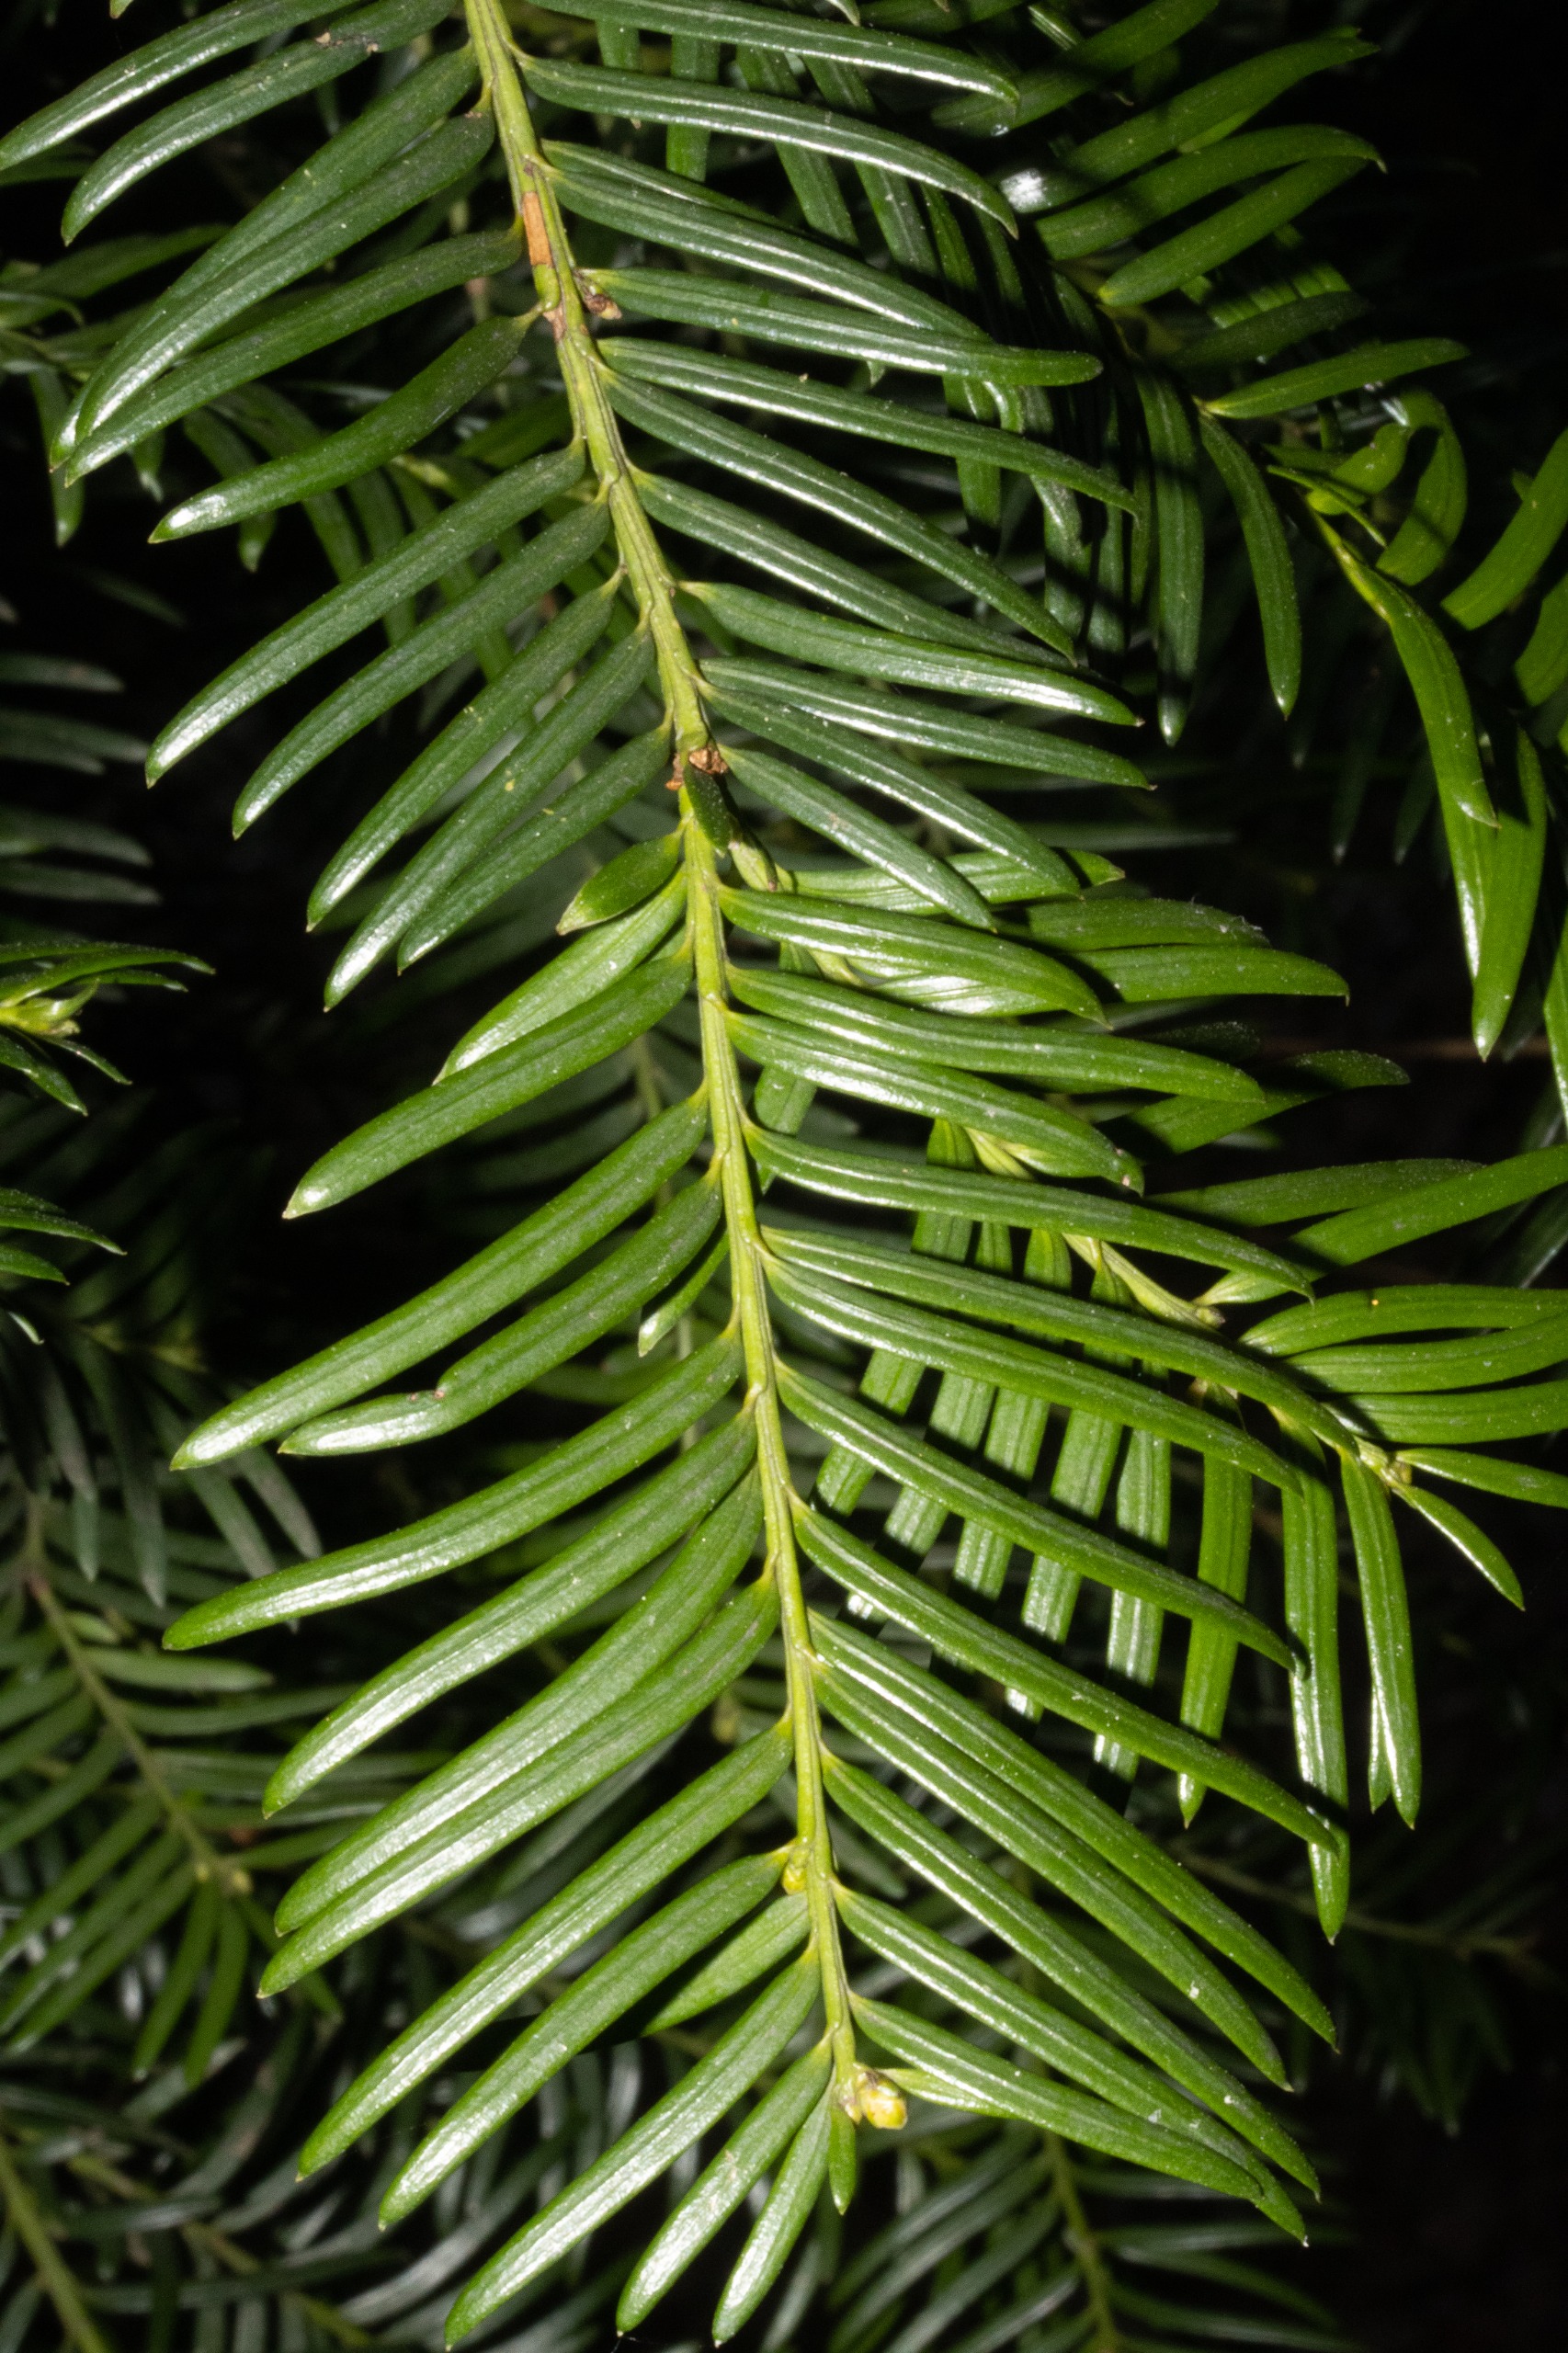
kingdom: Plantae
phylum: Tracheophyta
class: Pinopsida
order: Pinales
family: Taxaceae
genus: Taxus
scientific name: Taxus baccata
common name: Almindelig taks
